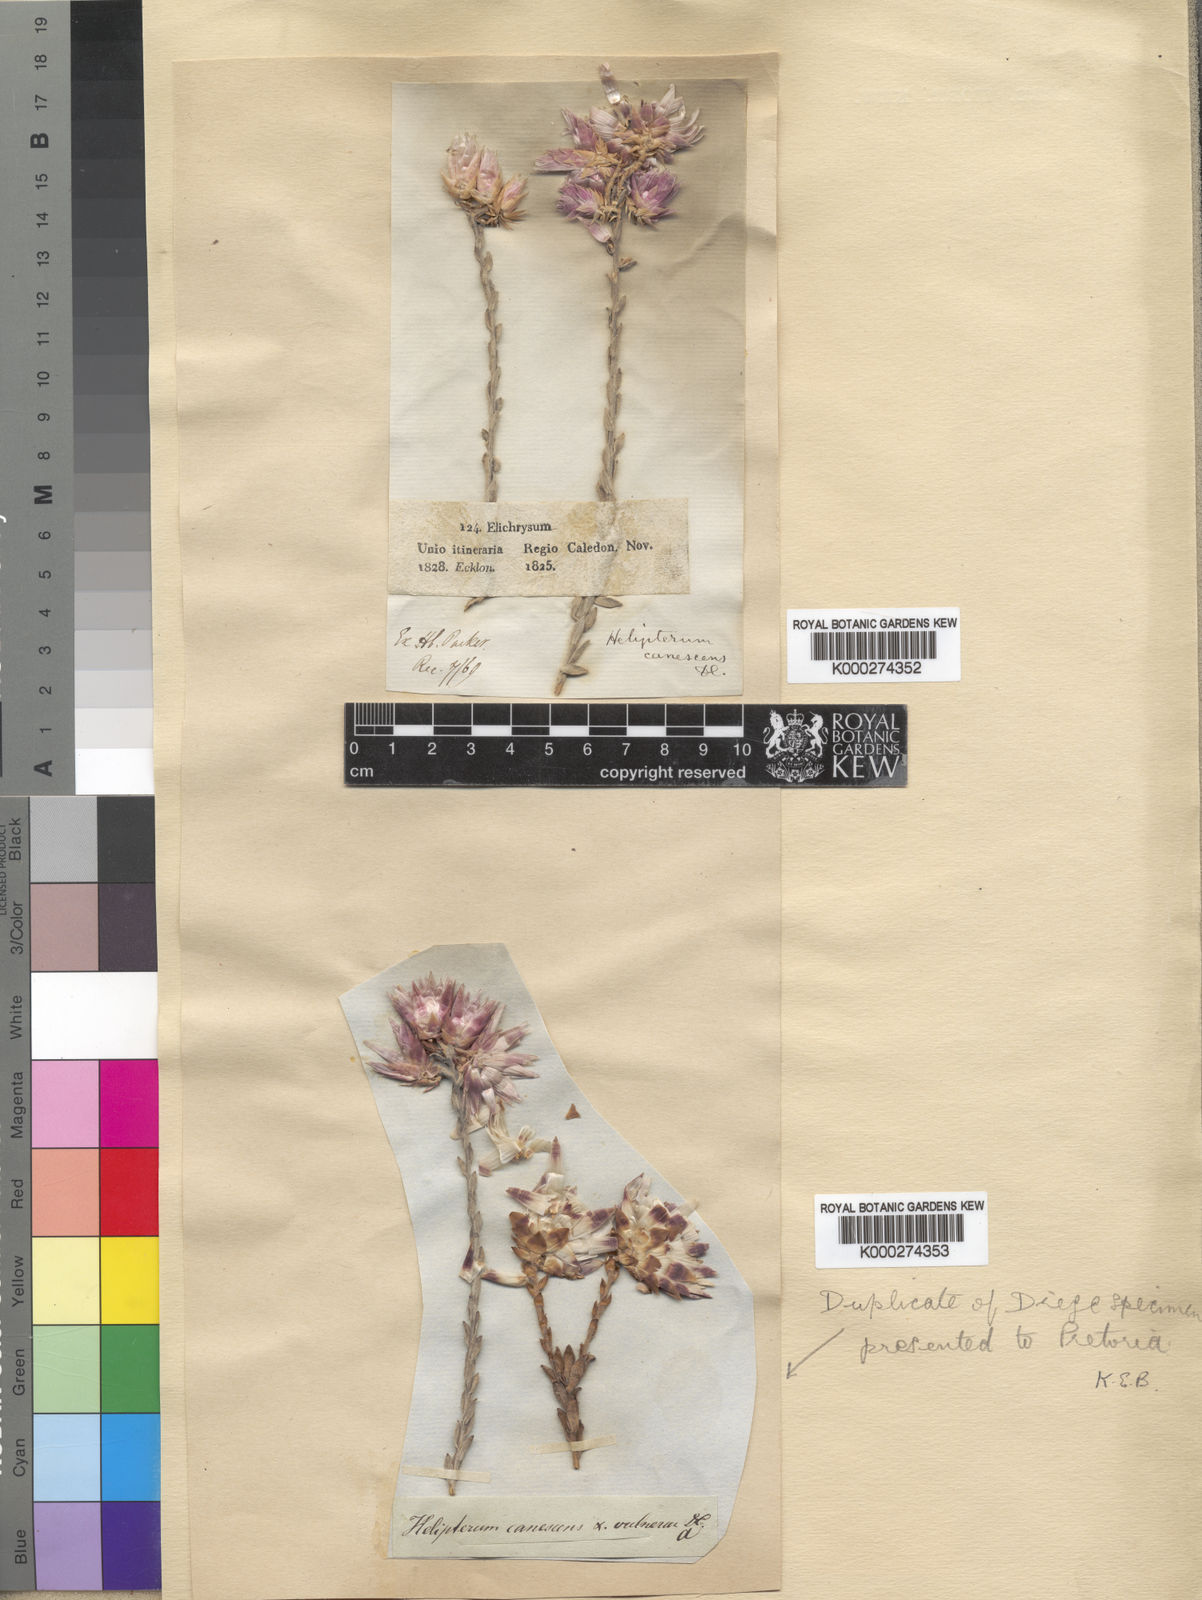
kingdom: Plantae
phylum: Tracheophyta
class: Magnoliopsida
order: Asterales
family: Asteraceae
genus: Syncarpha
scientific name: Syncarpha canescens
